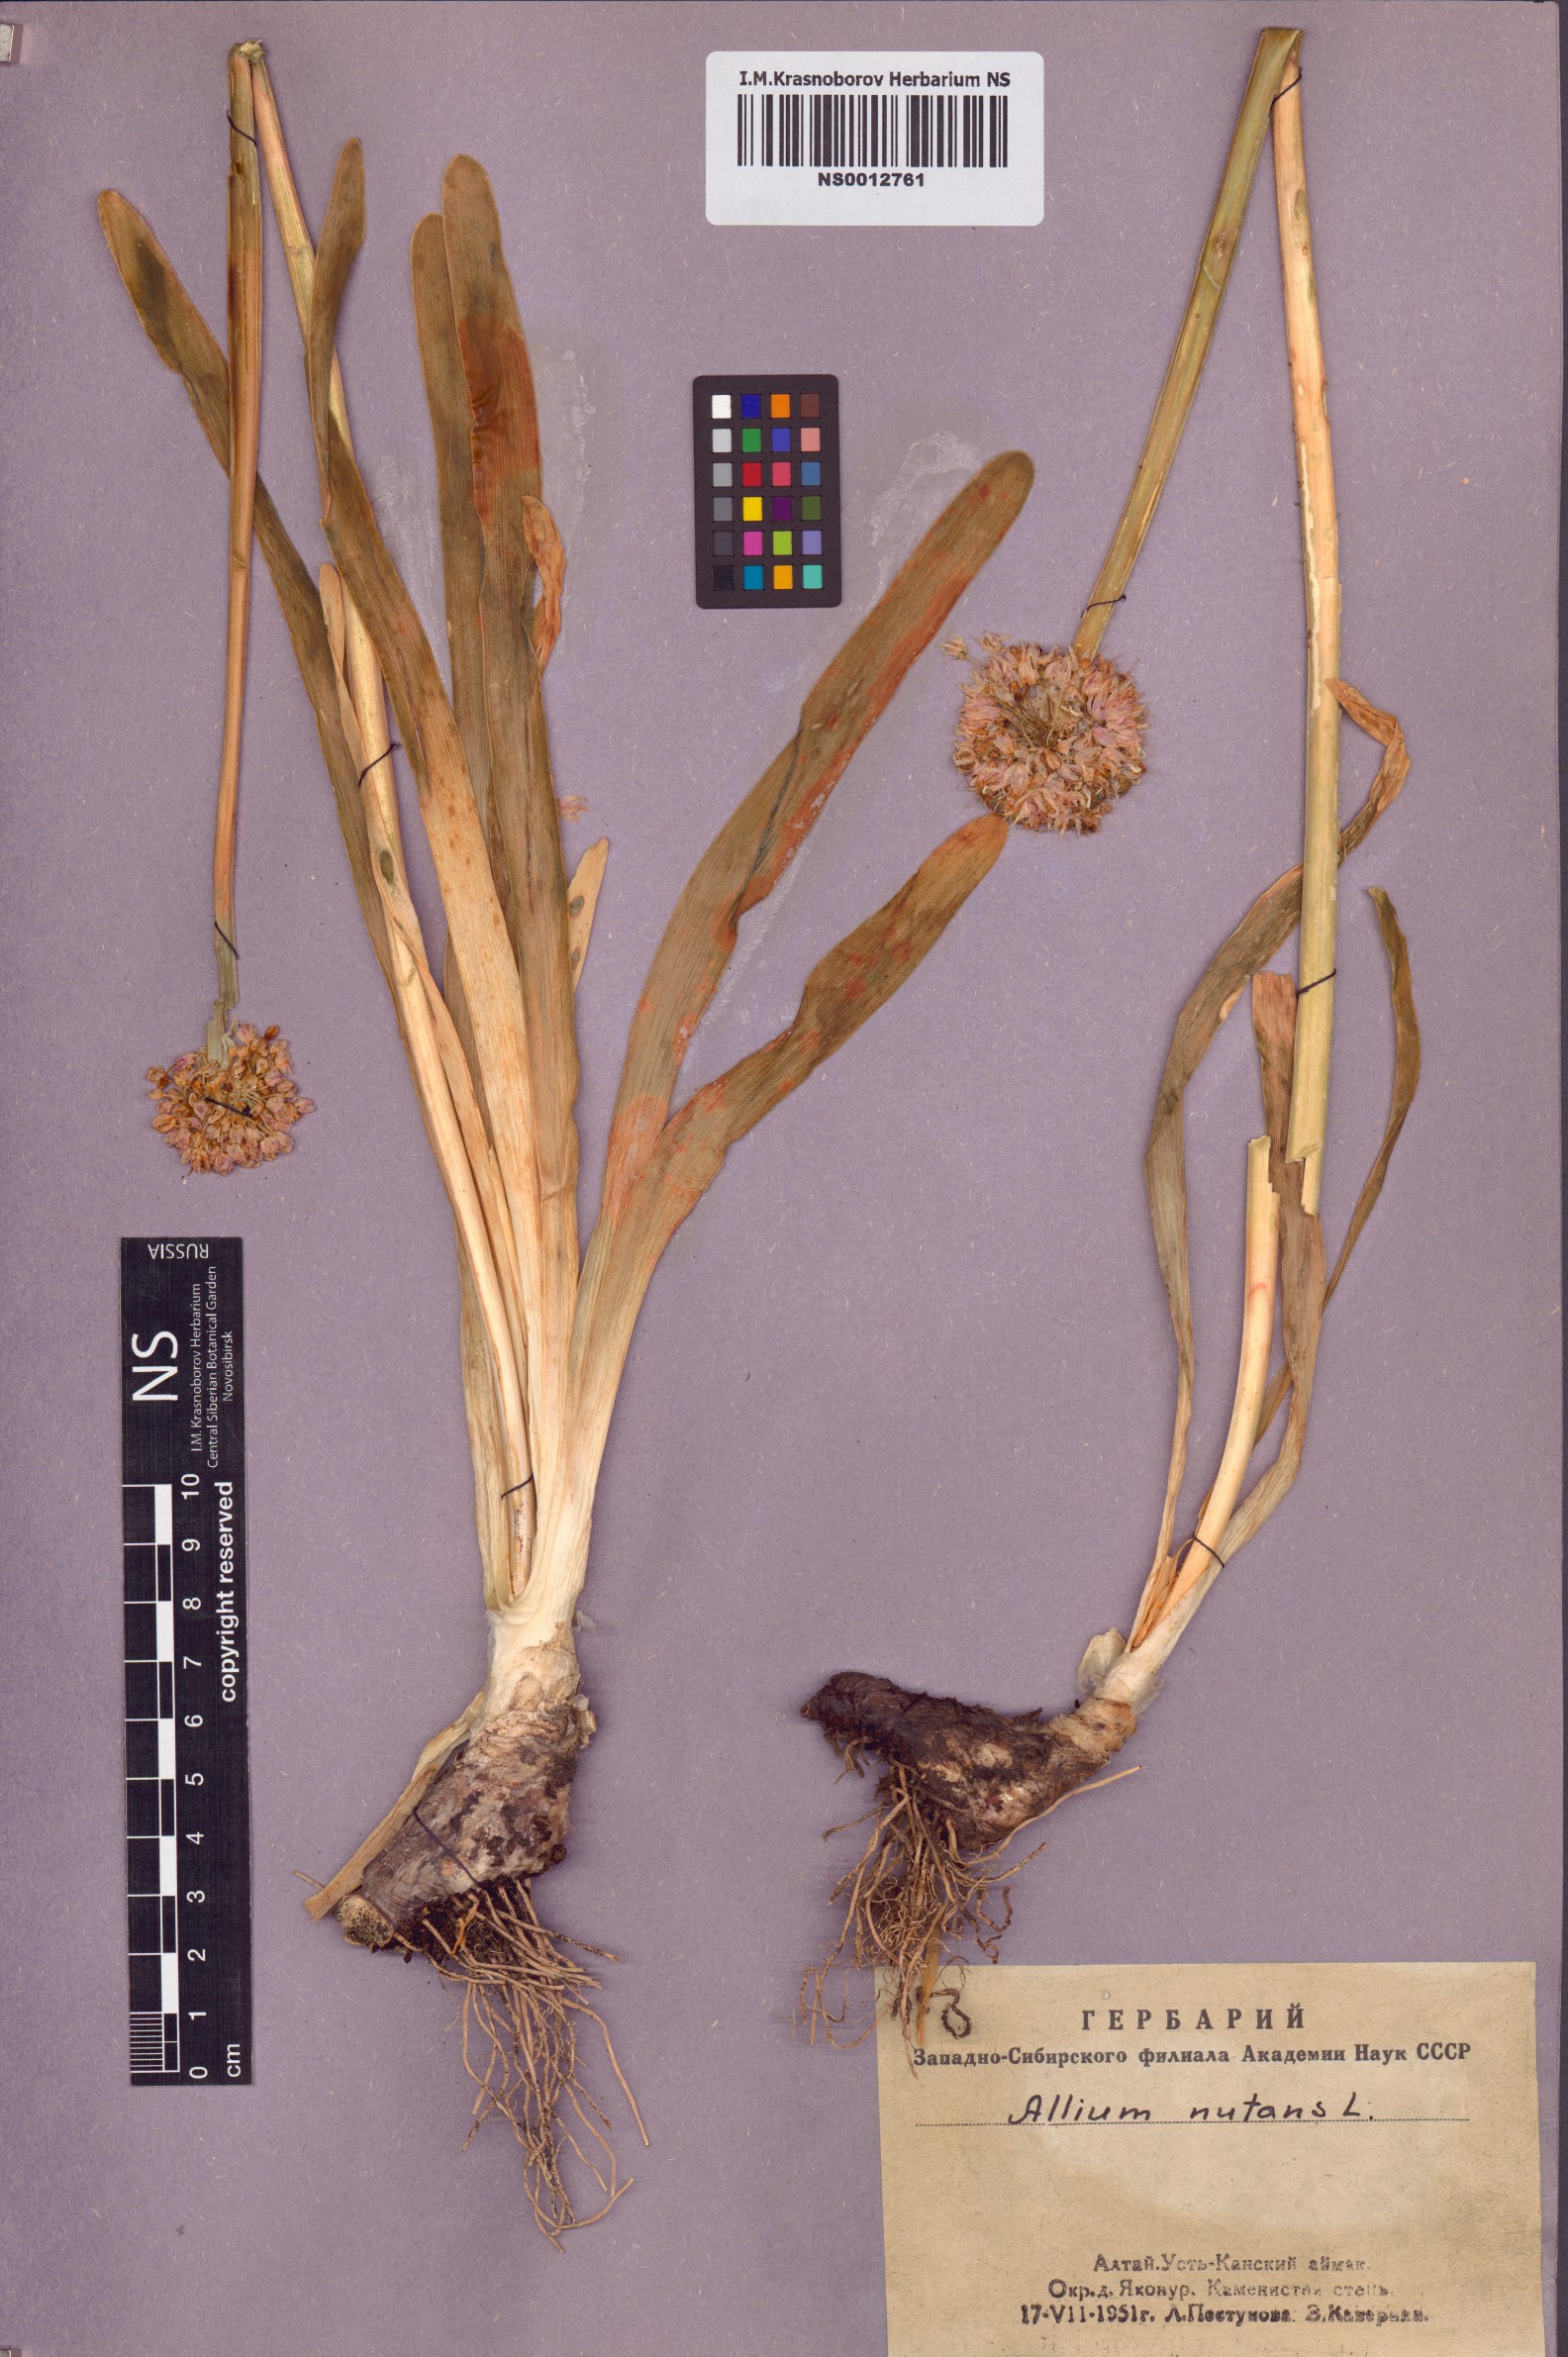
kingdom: Plantae
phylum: Tracheophyta
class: Liliopsida
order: Asparagales
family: Amaryllidaceae
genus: Allium
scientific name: Allium nutans
